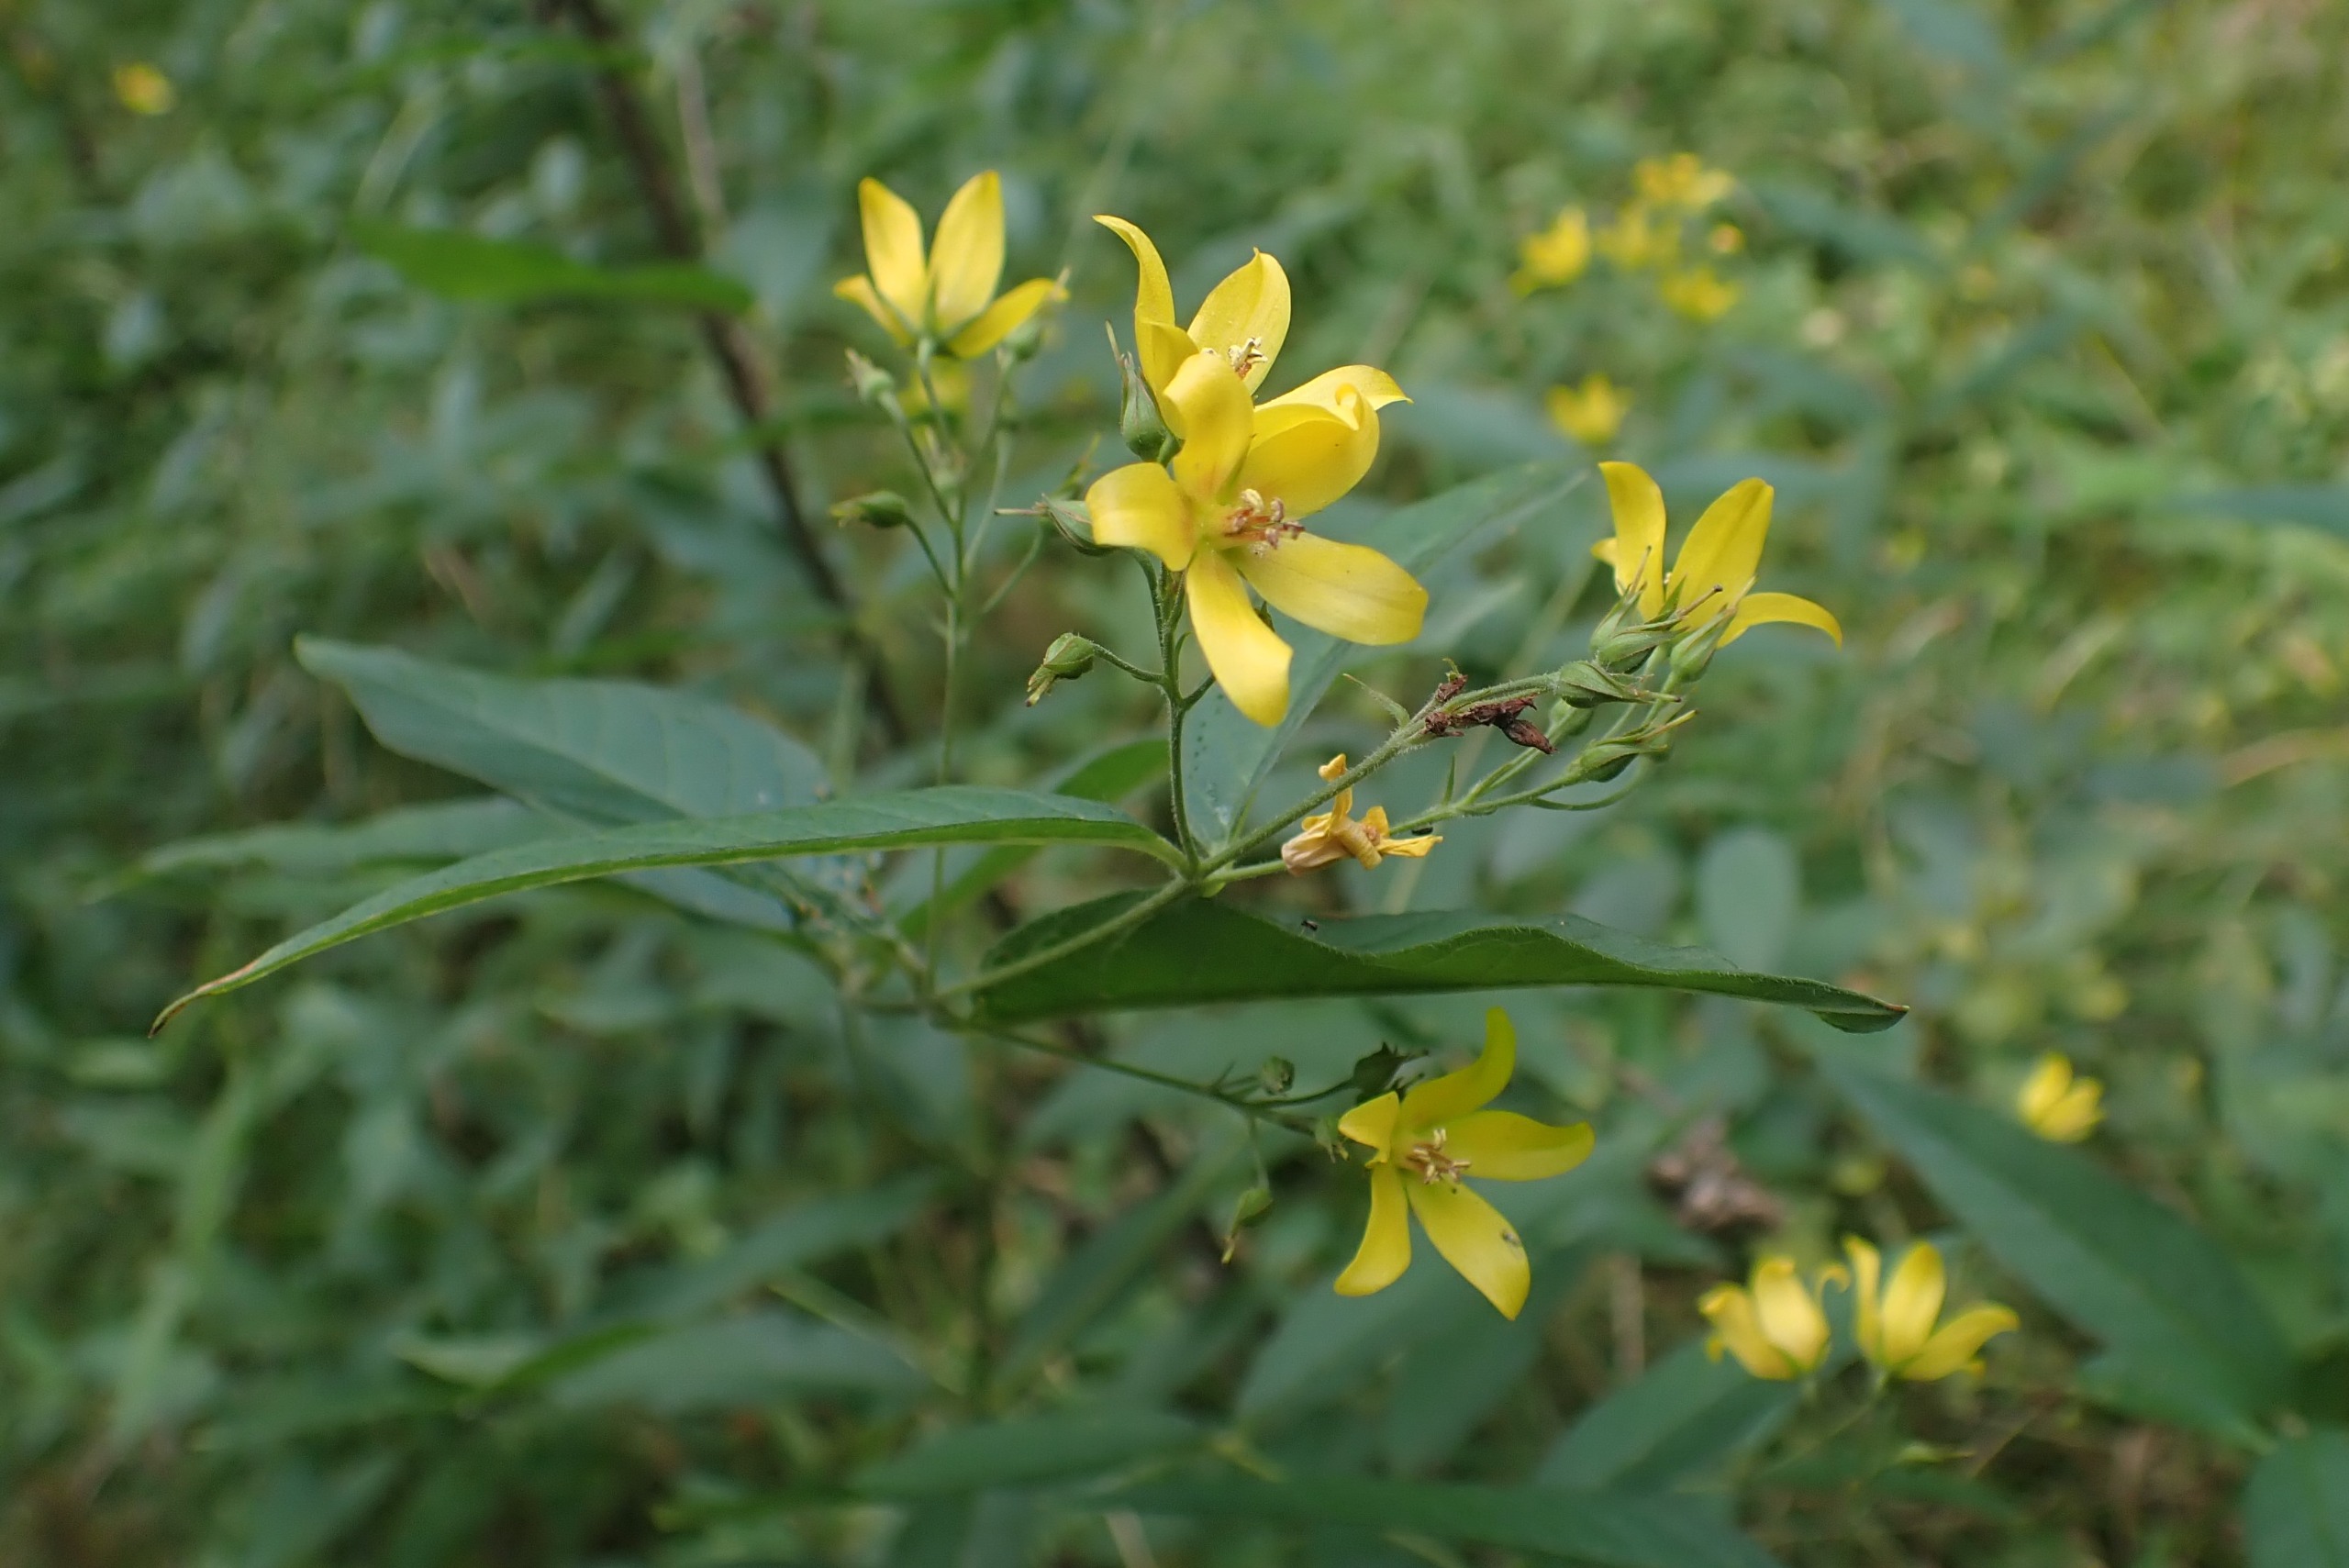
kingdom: Plantae
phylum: Tracheophyta
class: Magnoliopsida
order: Ericales
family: Primulaceae
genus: Lysimachia
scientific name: Lysimachia vulgaris
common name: Almindelig fredløs
